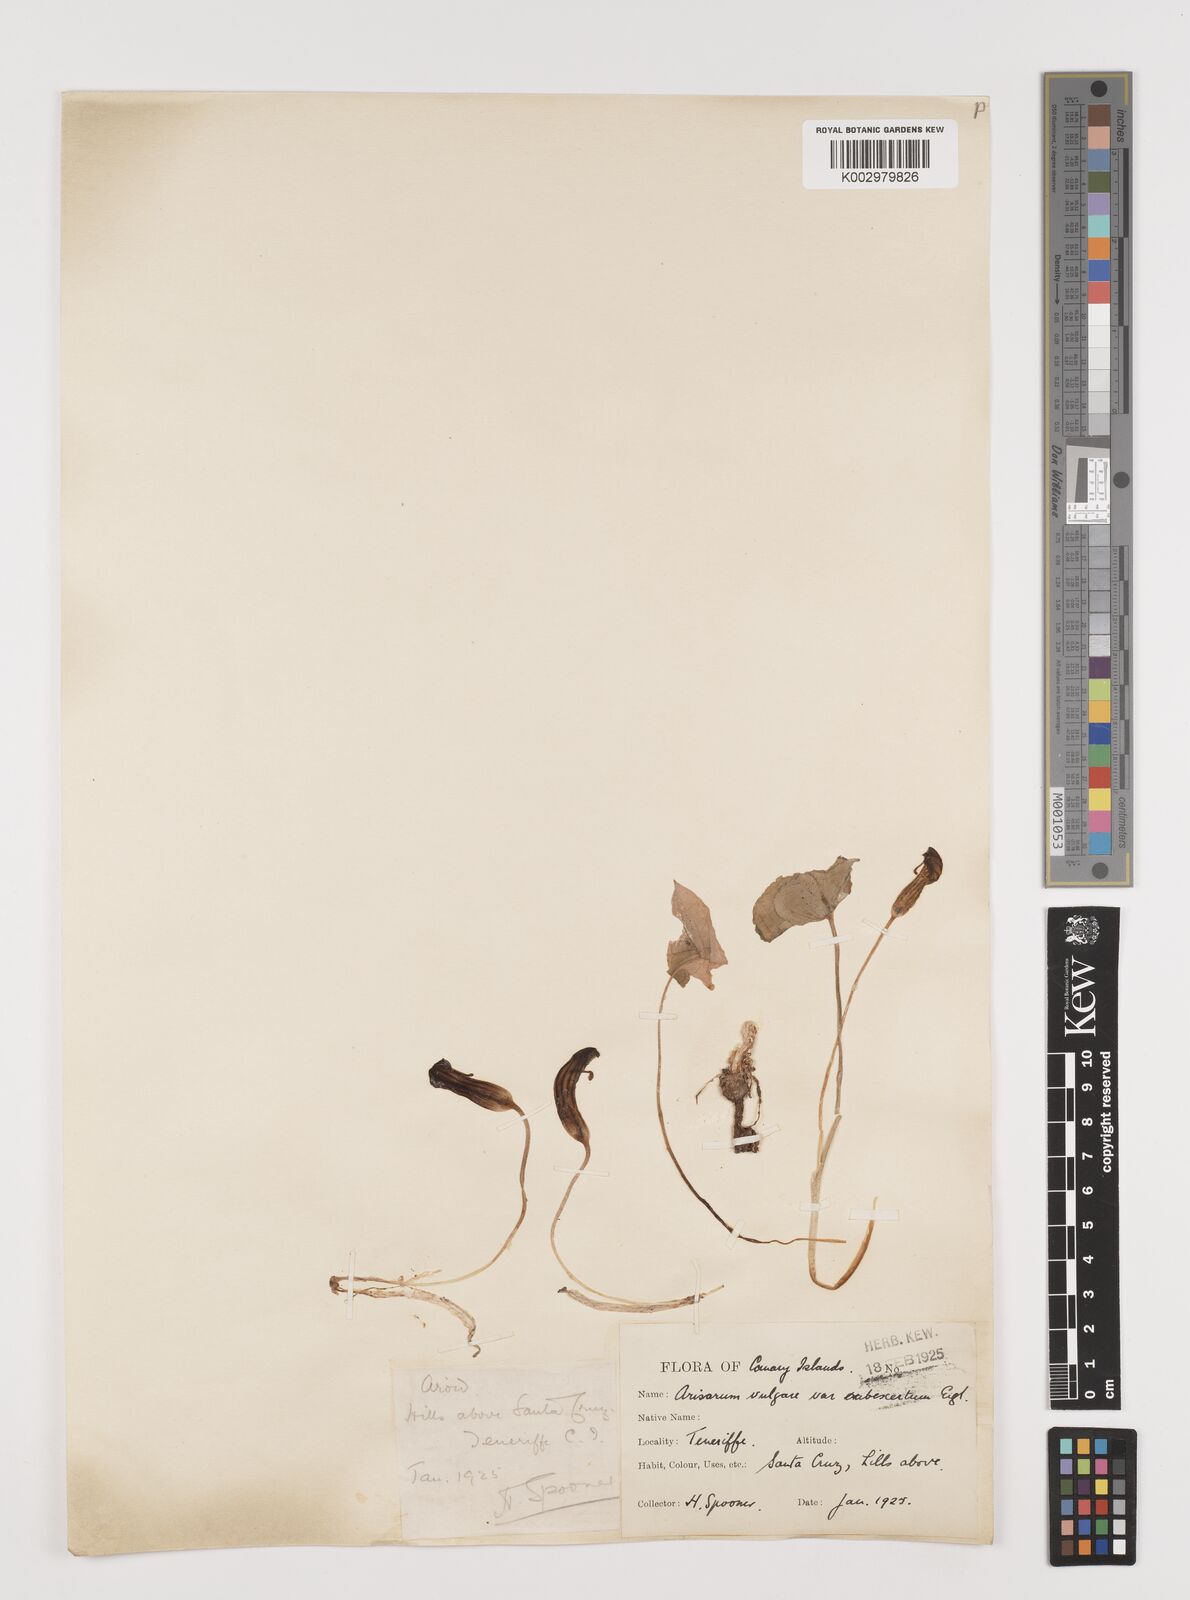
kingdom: Plantae
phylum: Tracheophyta
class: Liliopsida
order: Alismatales
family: Araceae
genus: Arisarum
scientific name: Arisarum vulgare
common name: Common arisarum
